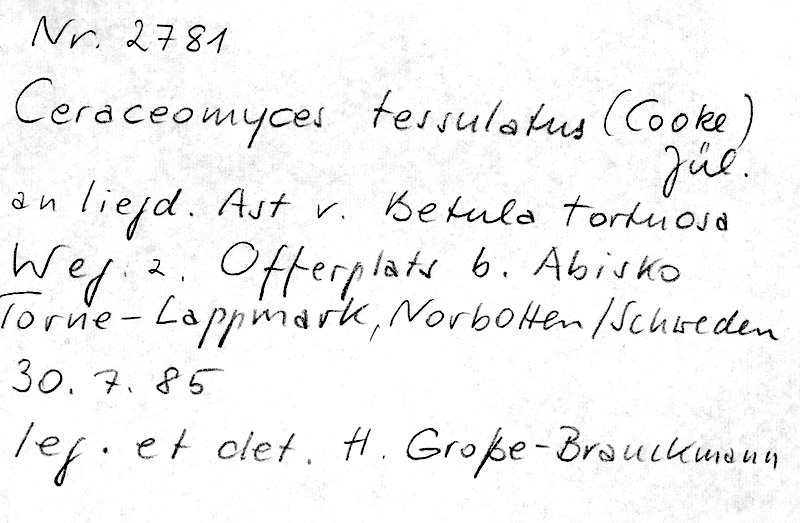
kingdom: Fungi
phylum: Basidiomycota
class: Agaricomycetes
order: Amylocorticiales
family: Amylocorticiaceae
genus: Ceraceomyces
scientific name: Ceraceomyces tessulatus
